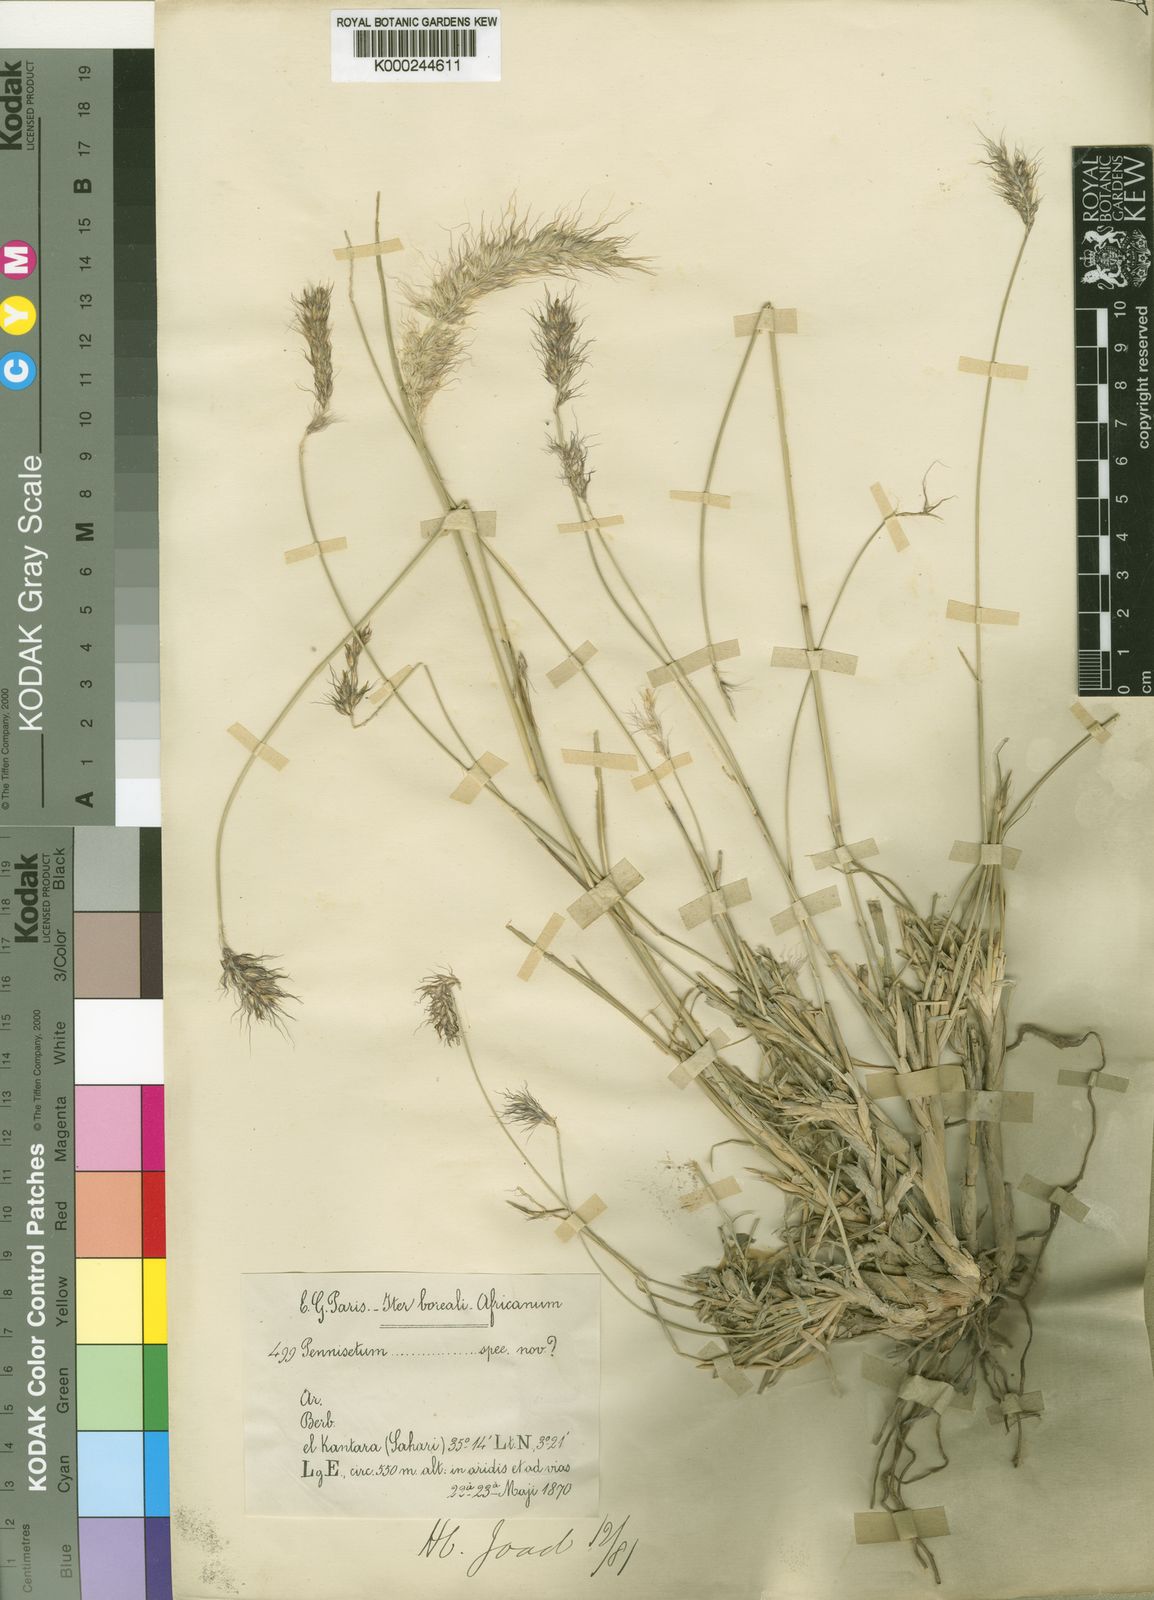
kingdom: Plantae
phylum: Tracheophyta
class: Liliopsida
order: Poales
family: Poaceae
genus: Cenchrus
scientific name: Cenchrus setaceus
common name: Crimson fountaingrass
